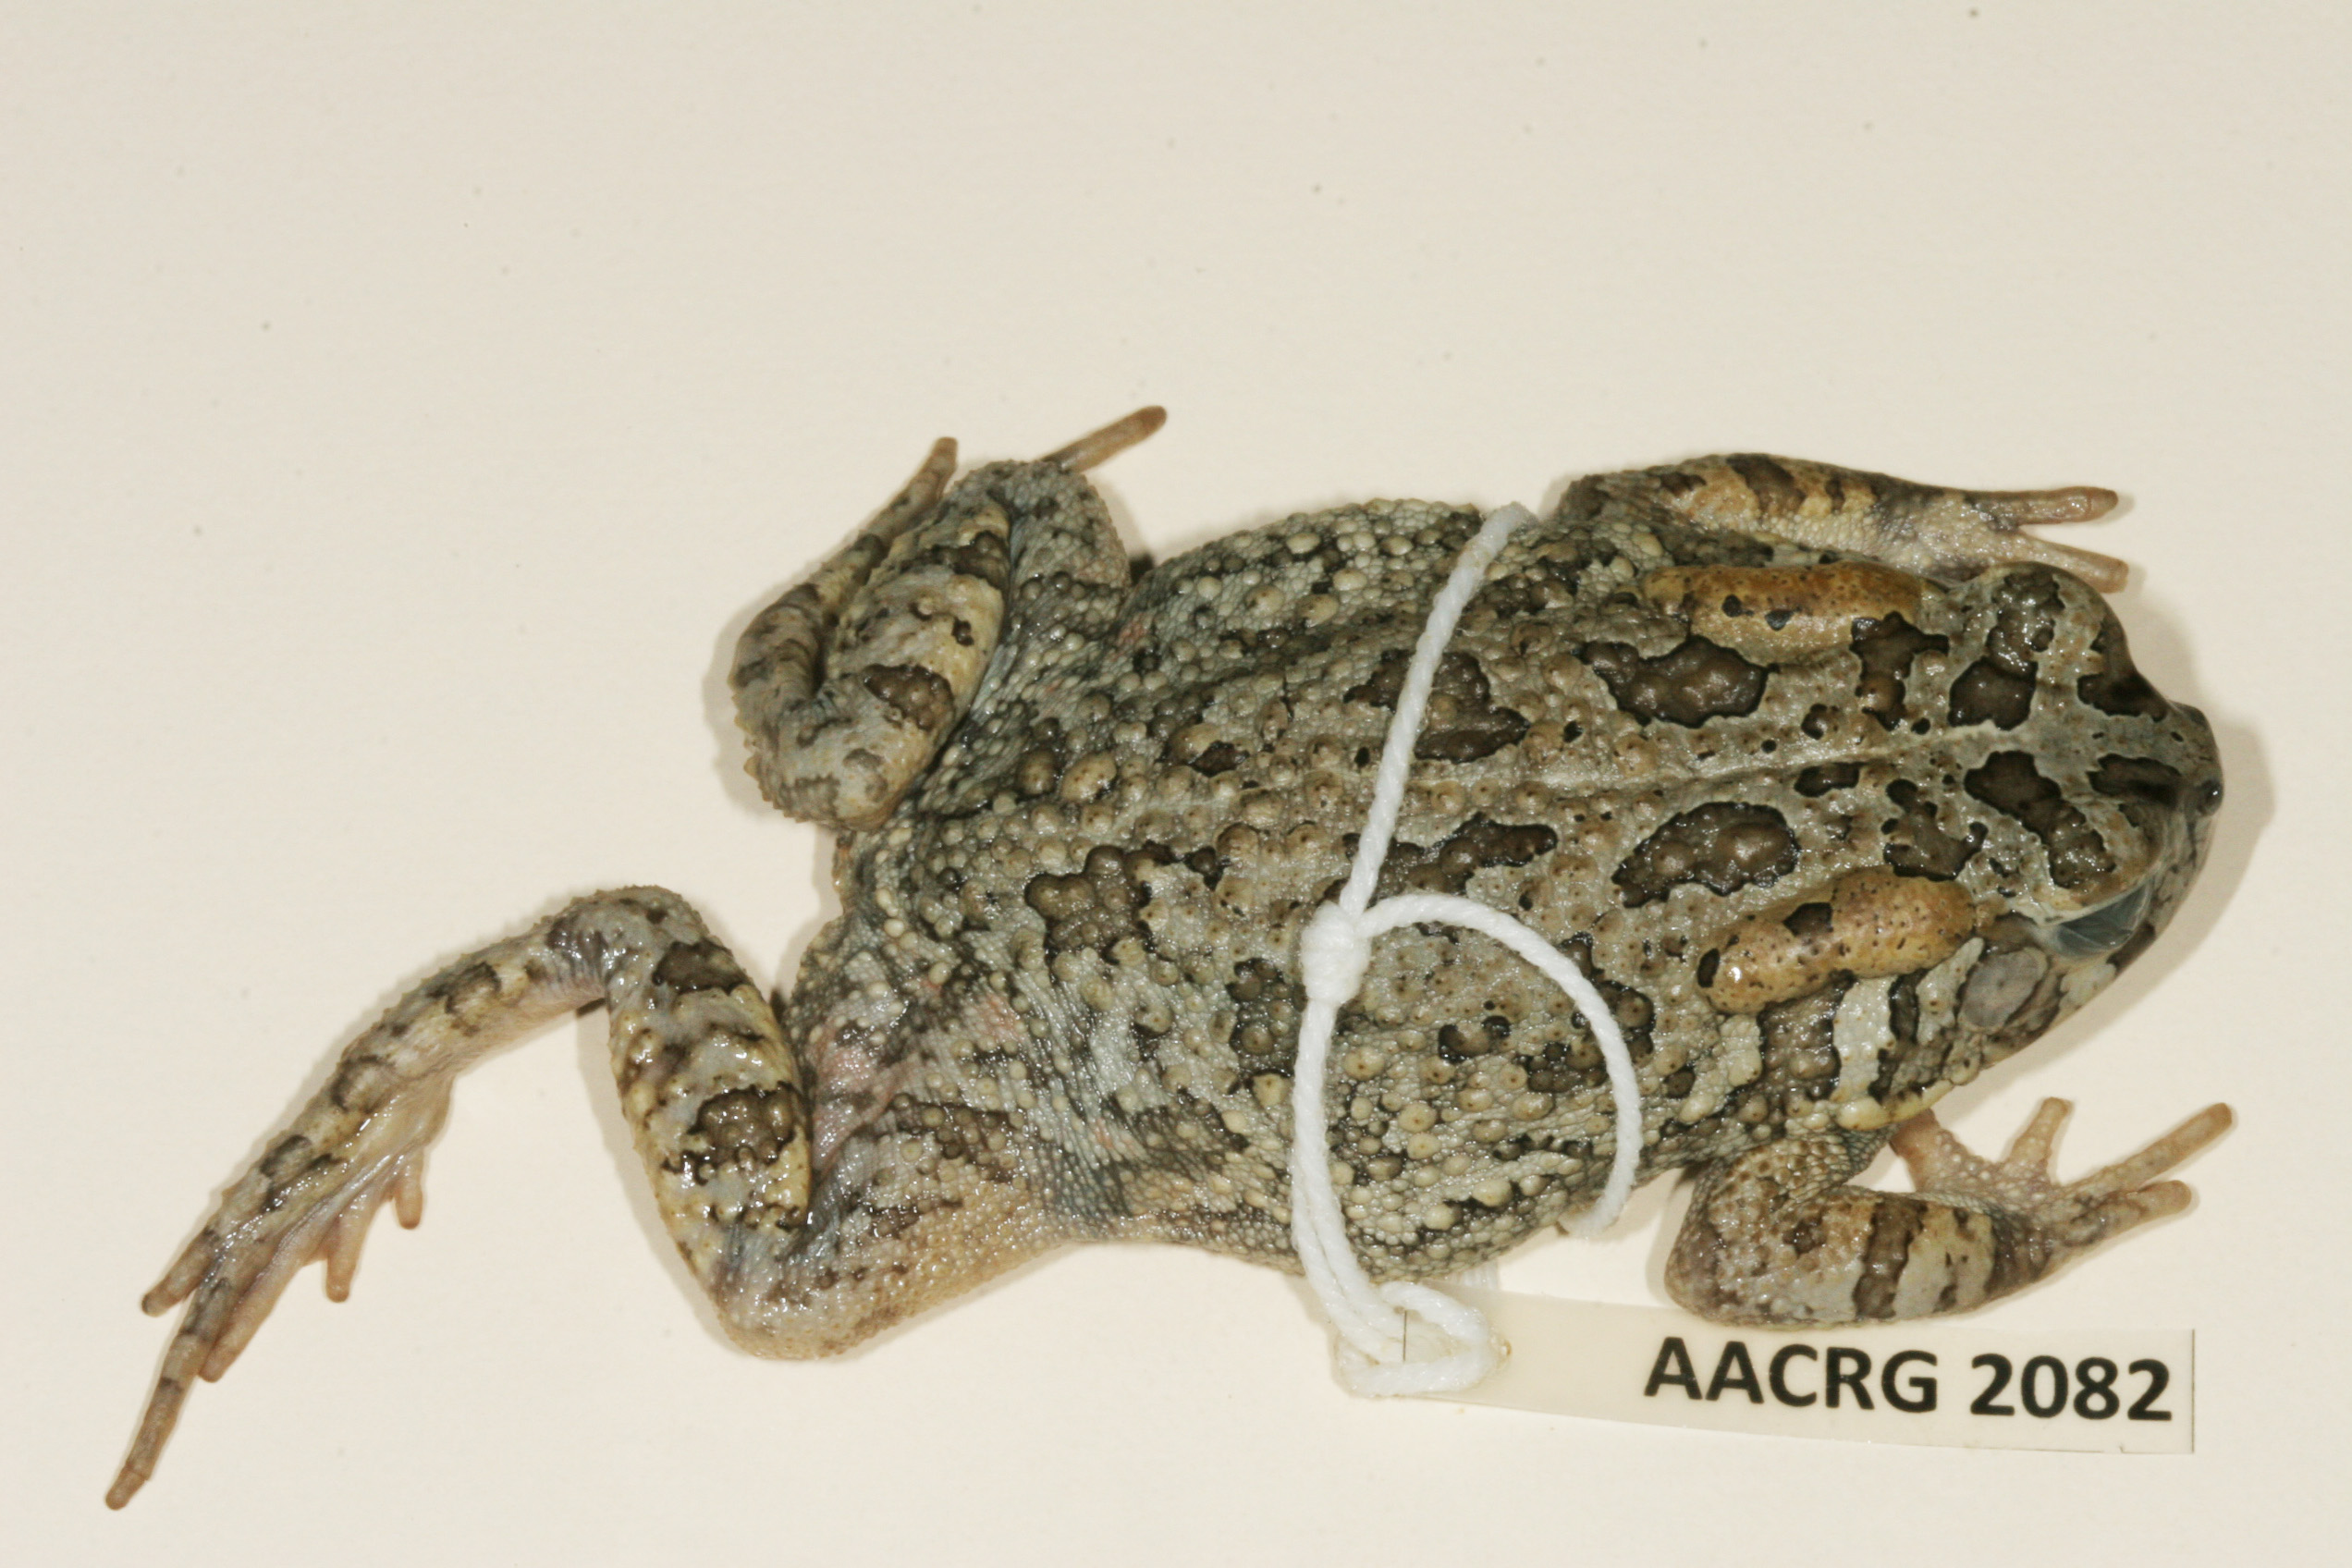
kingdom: Animalia
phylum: Chordata
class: Amphibia
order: Anura
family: Bufonidae
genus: Sclerophrys
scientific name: Sclerophrys gutturalis
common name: African common toad
